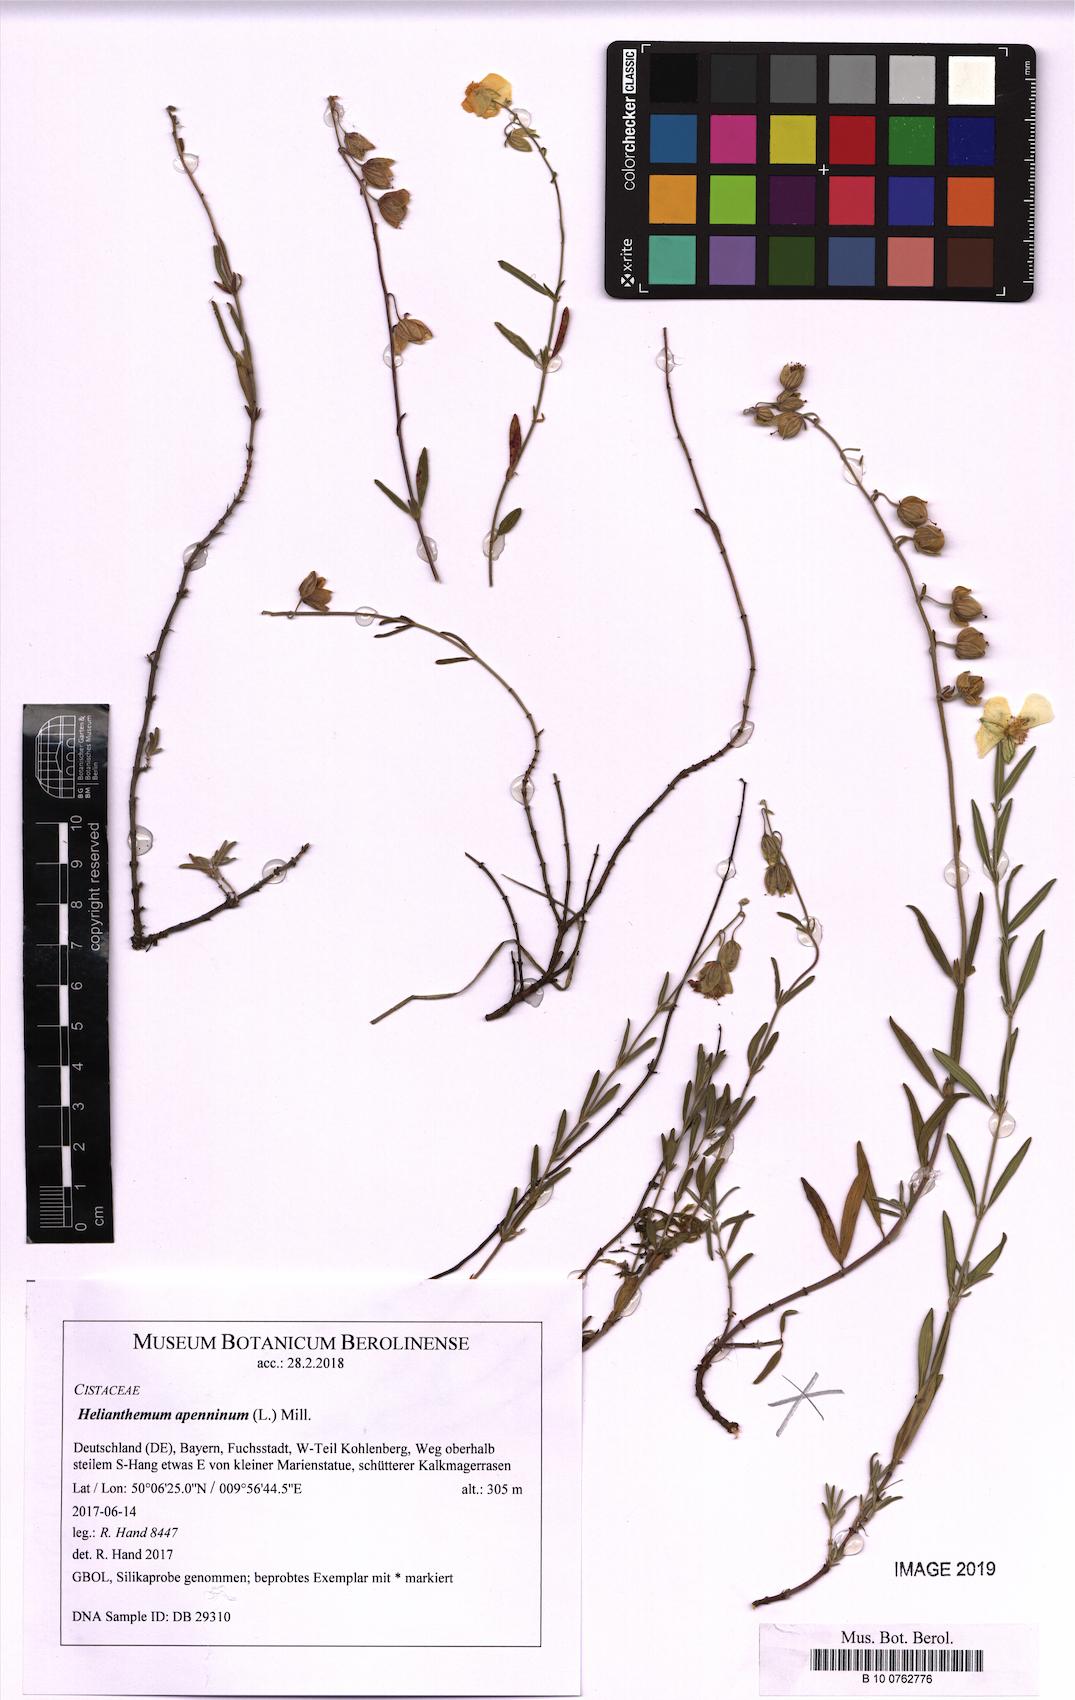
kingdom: Plantae
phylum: Tracheophyta
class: Magnoliopsida
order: Malvales
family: Cistaceae
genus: Helianthemum
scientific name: Helianthemum apenninum
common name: White rock-rose
